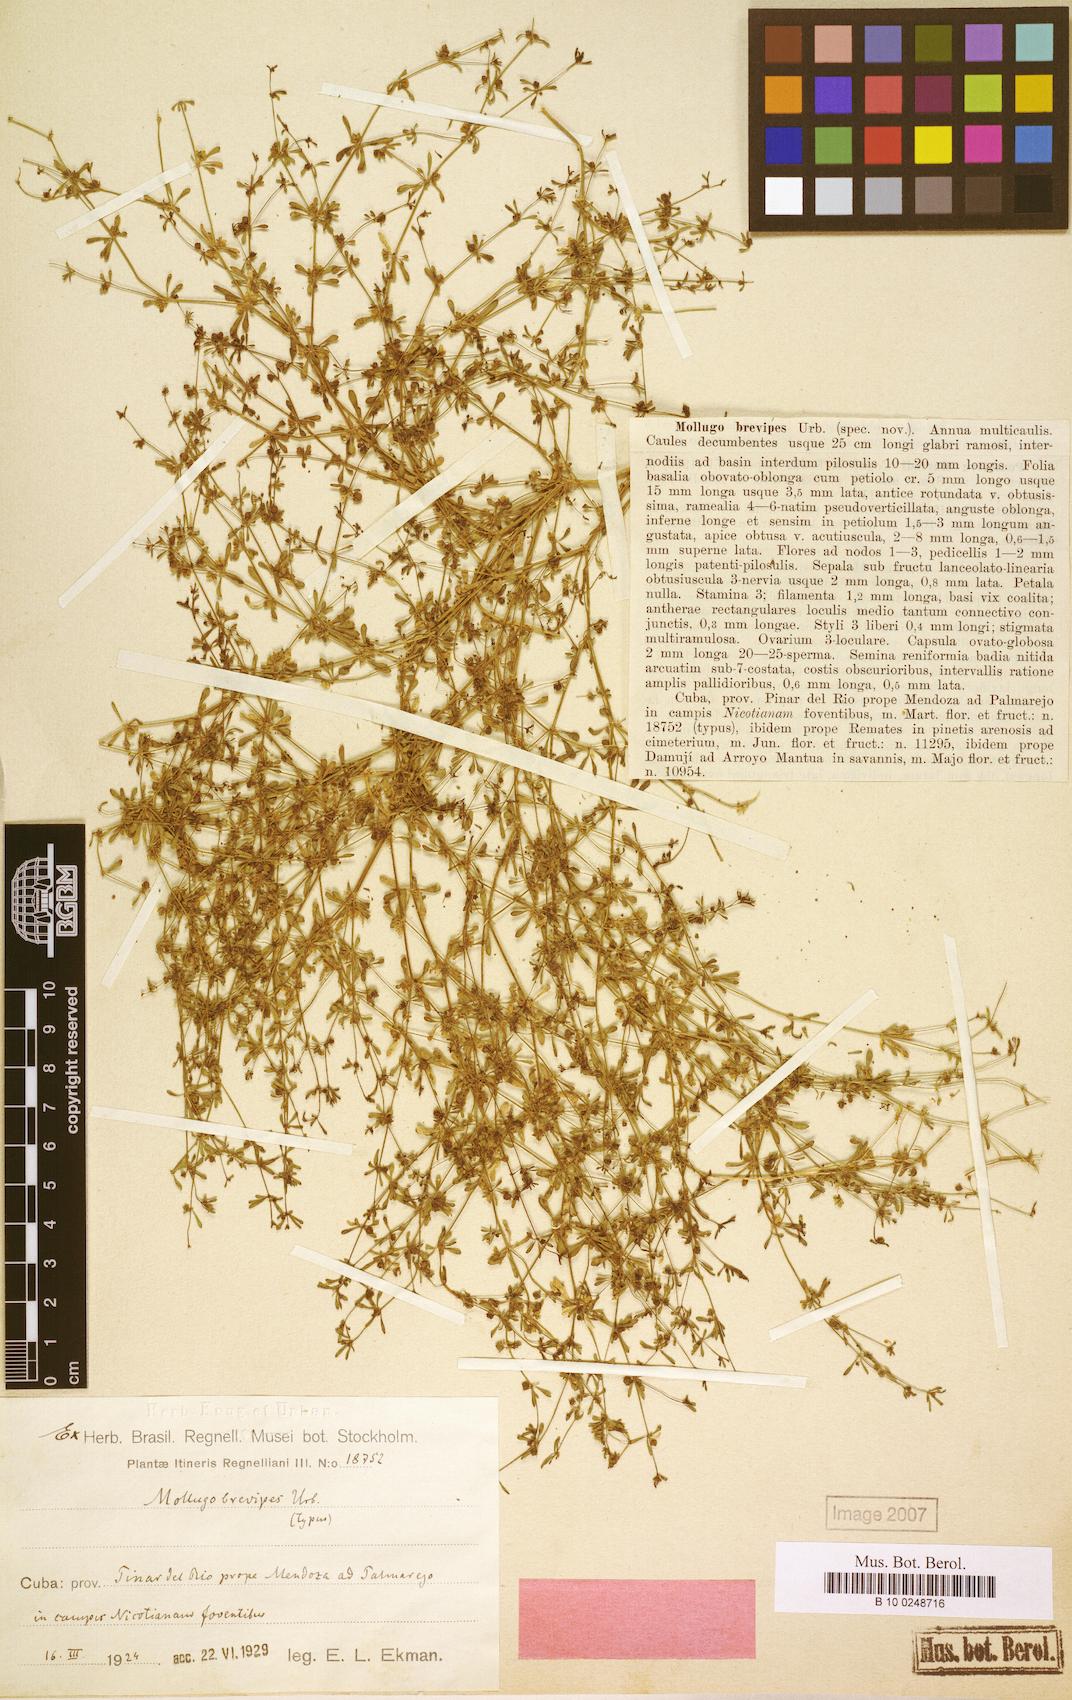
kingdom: Plantae
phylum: Tracheophyta
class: Magnoliopsida
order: Caryophyllales
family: Molluginaceae
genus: Mollugo
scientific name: Mollugo brevipes
